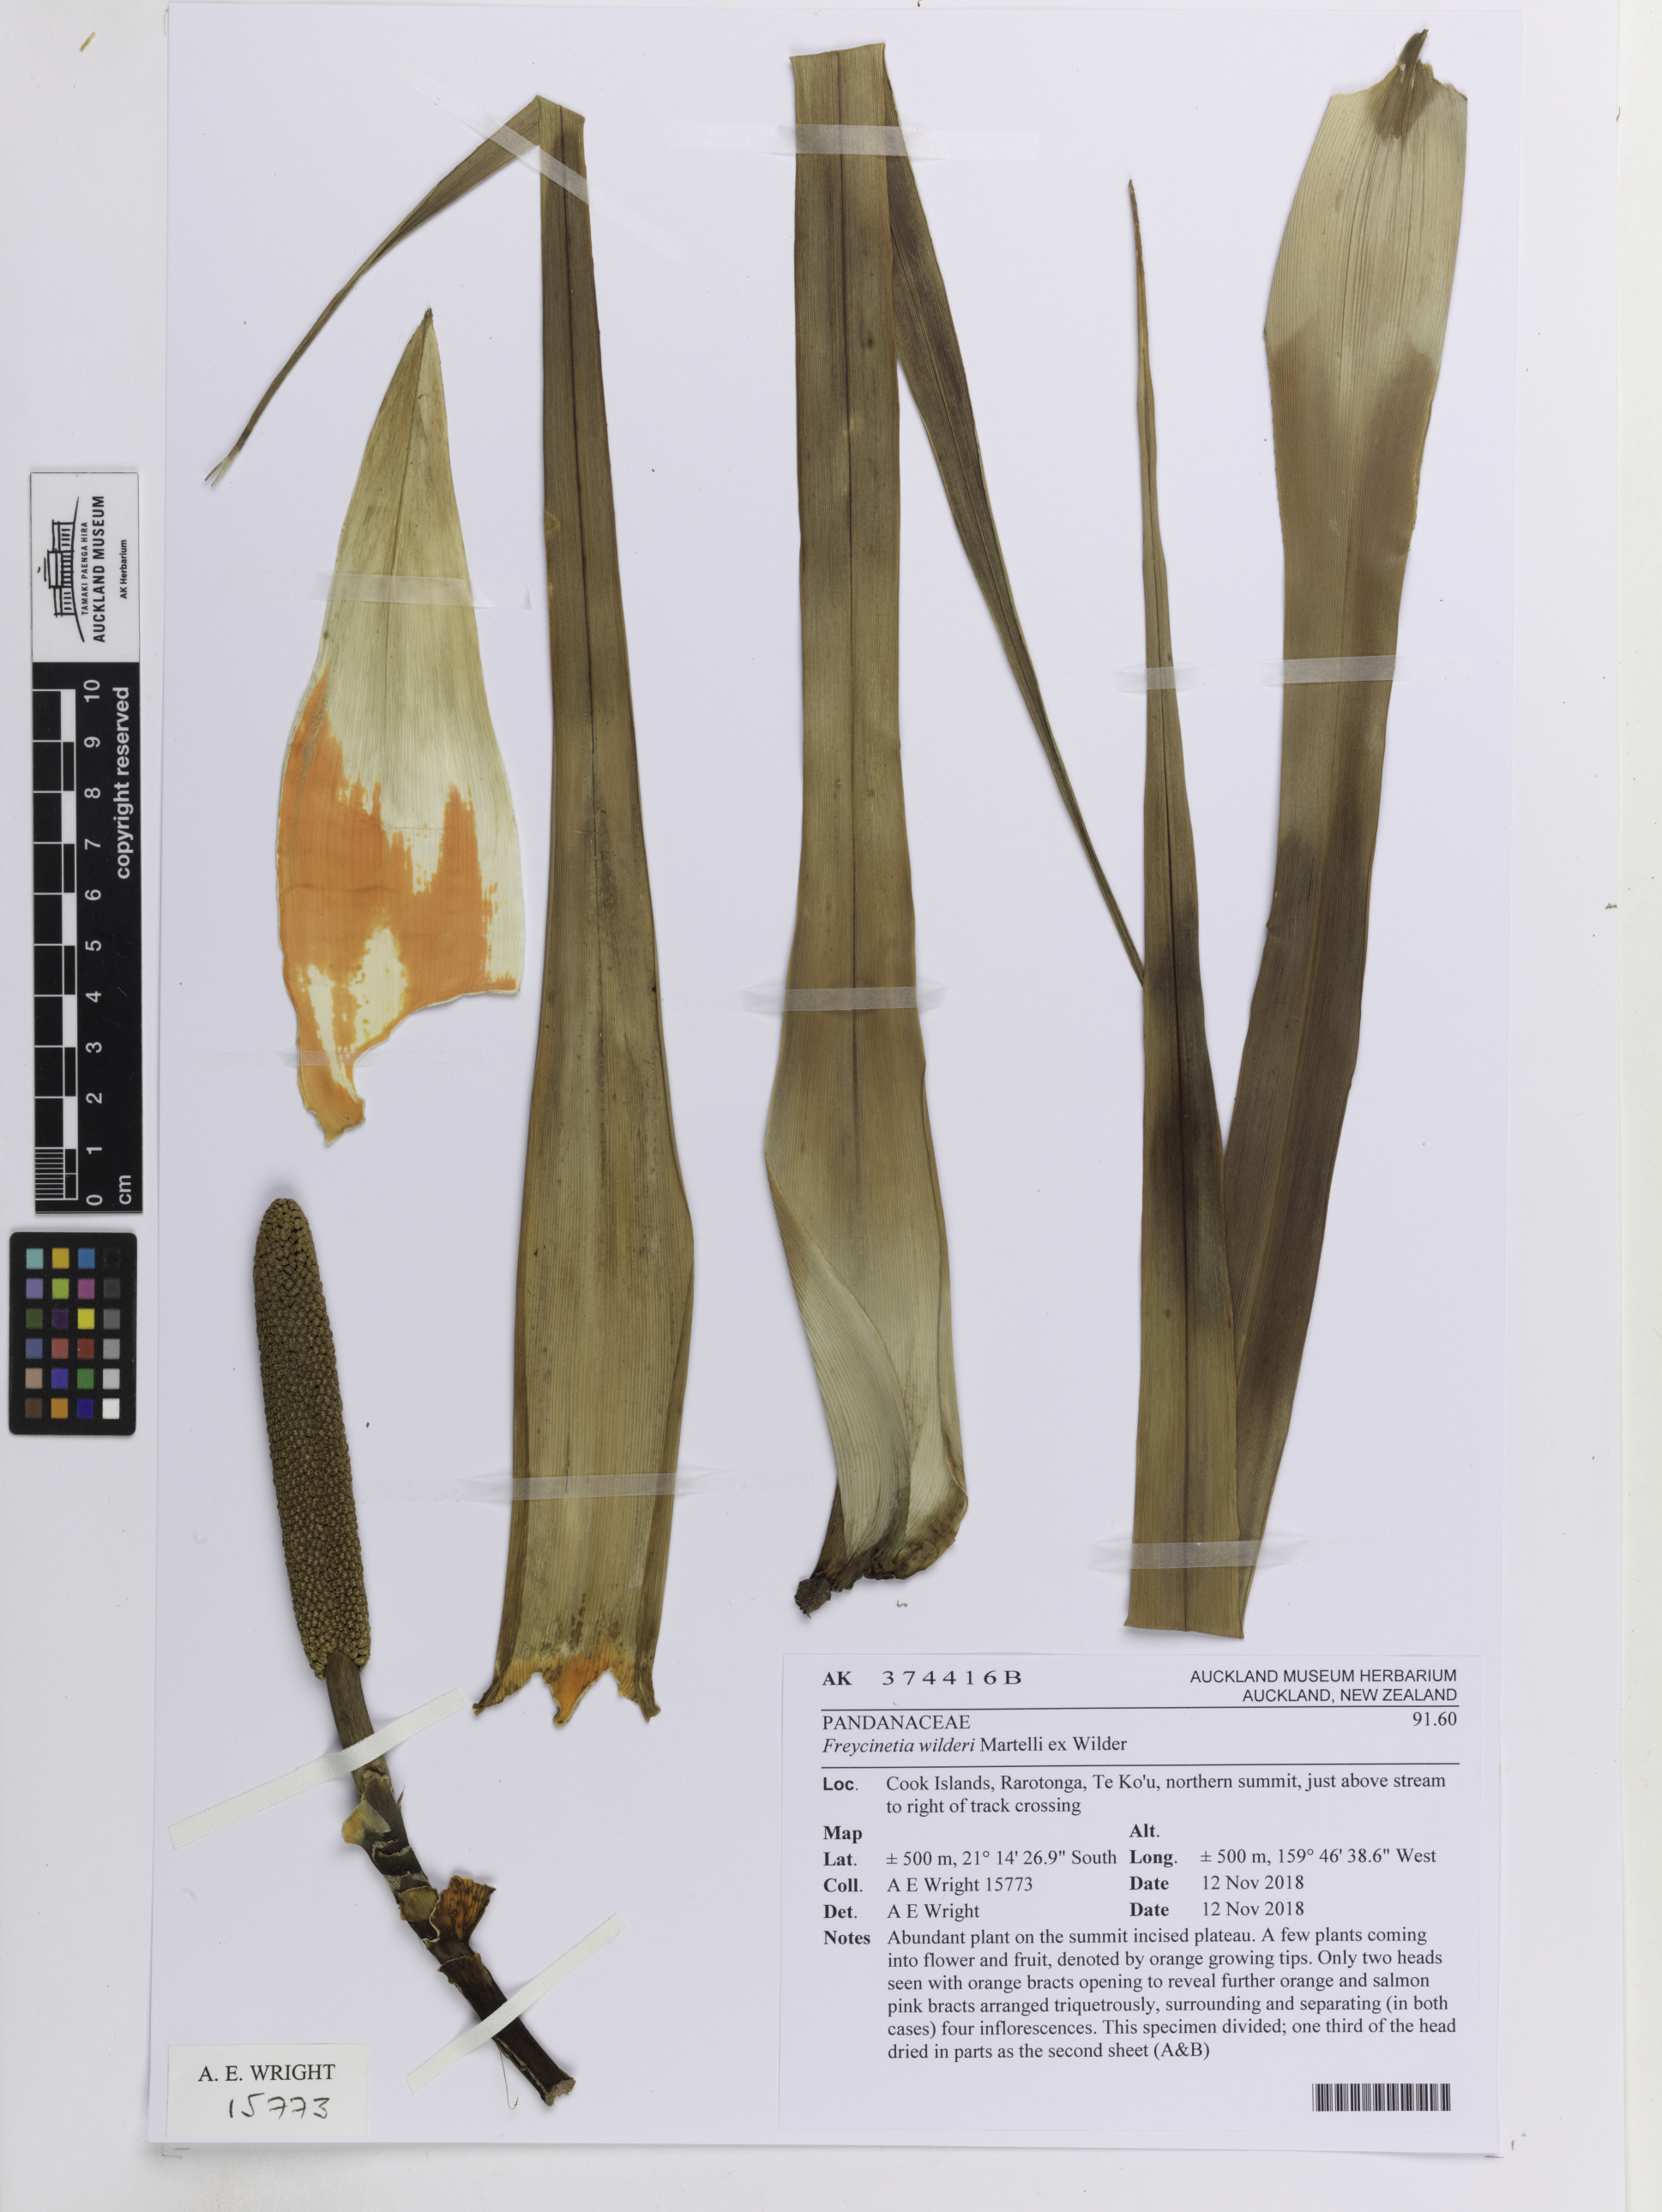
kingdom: Plantae
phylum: Tracheophyta
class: Liliopsida
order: Pandanales
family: Pandanaceae
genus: Freycinetia
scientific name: Freycinetia wilderi
